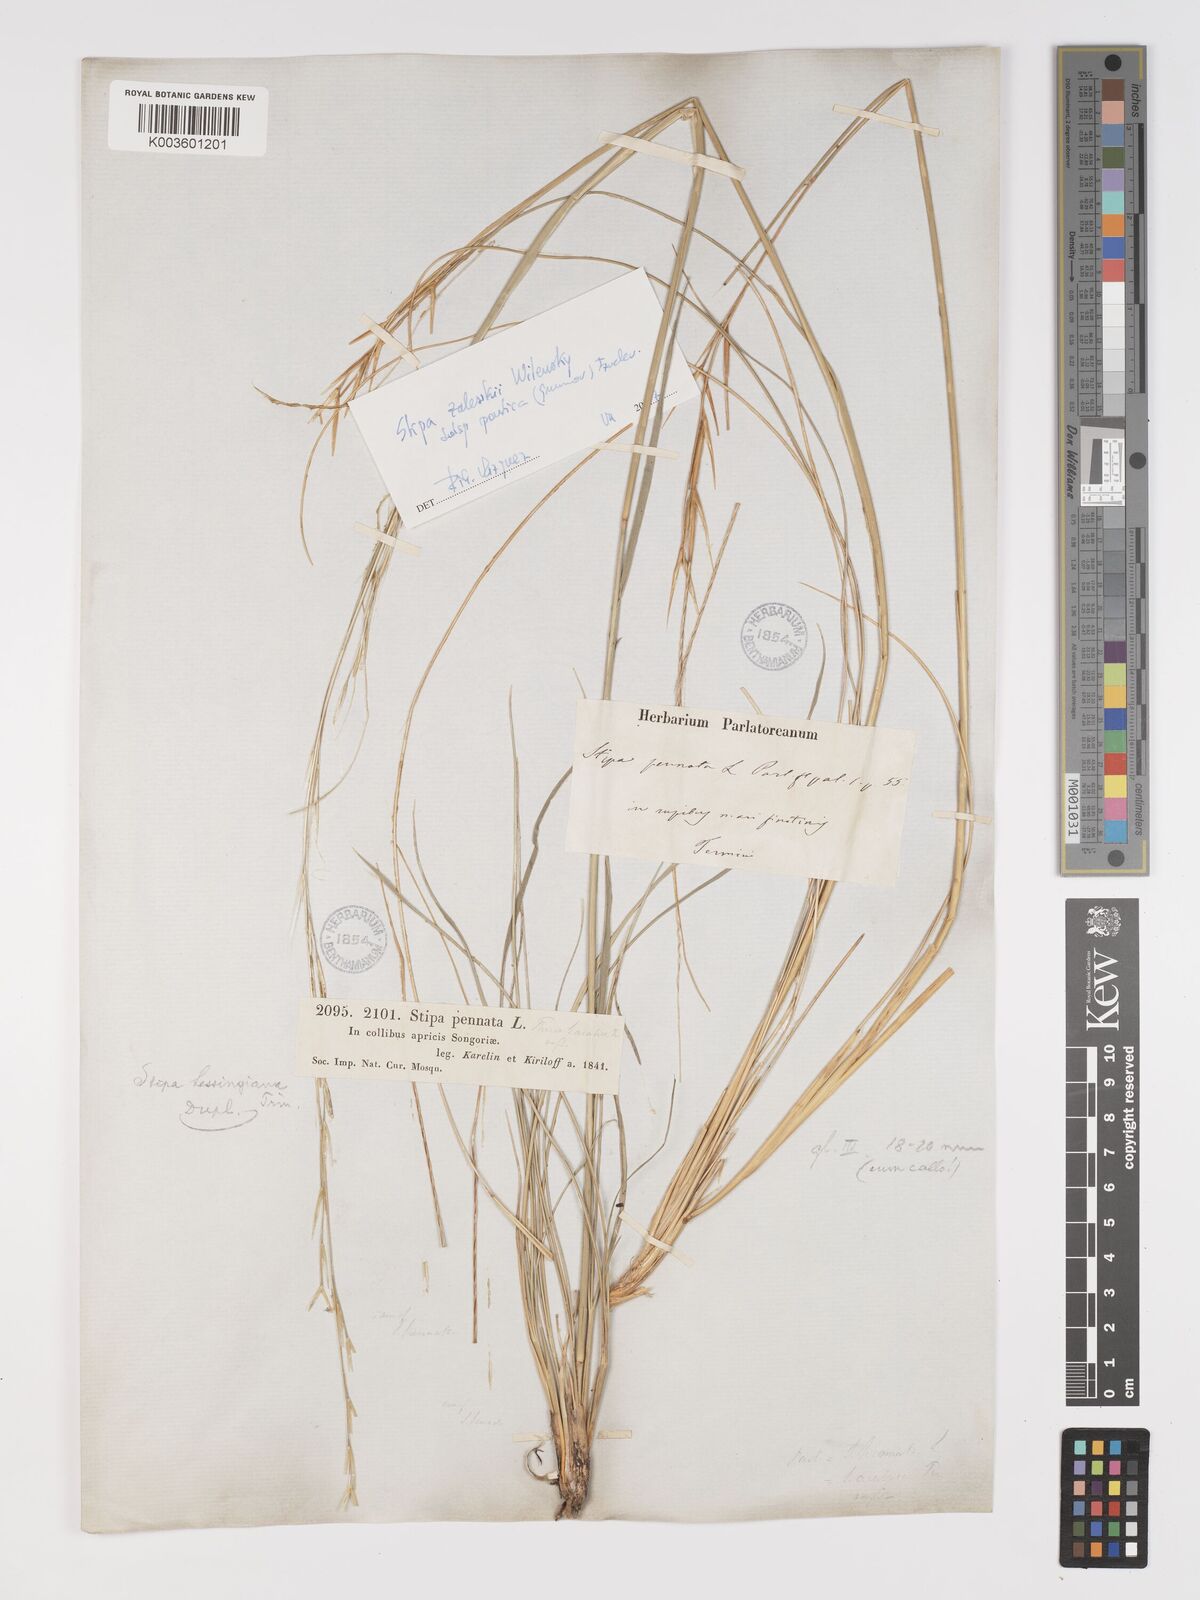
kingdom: Plantae
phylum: Tracheophyta
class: Liliopsida
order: Poales
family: Poaceae
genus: Stipa
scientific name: Stipa
